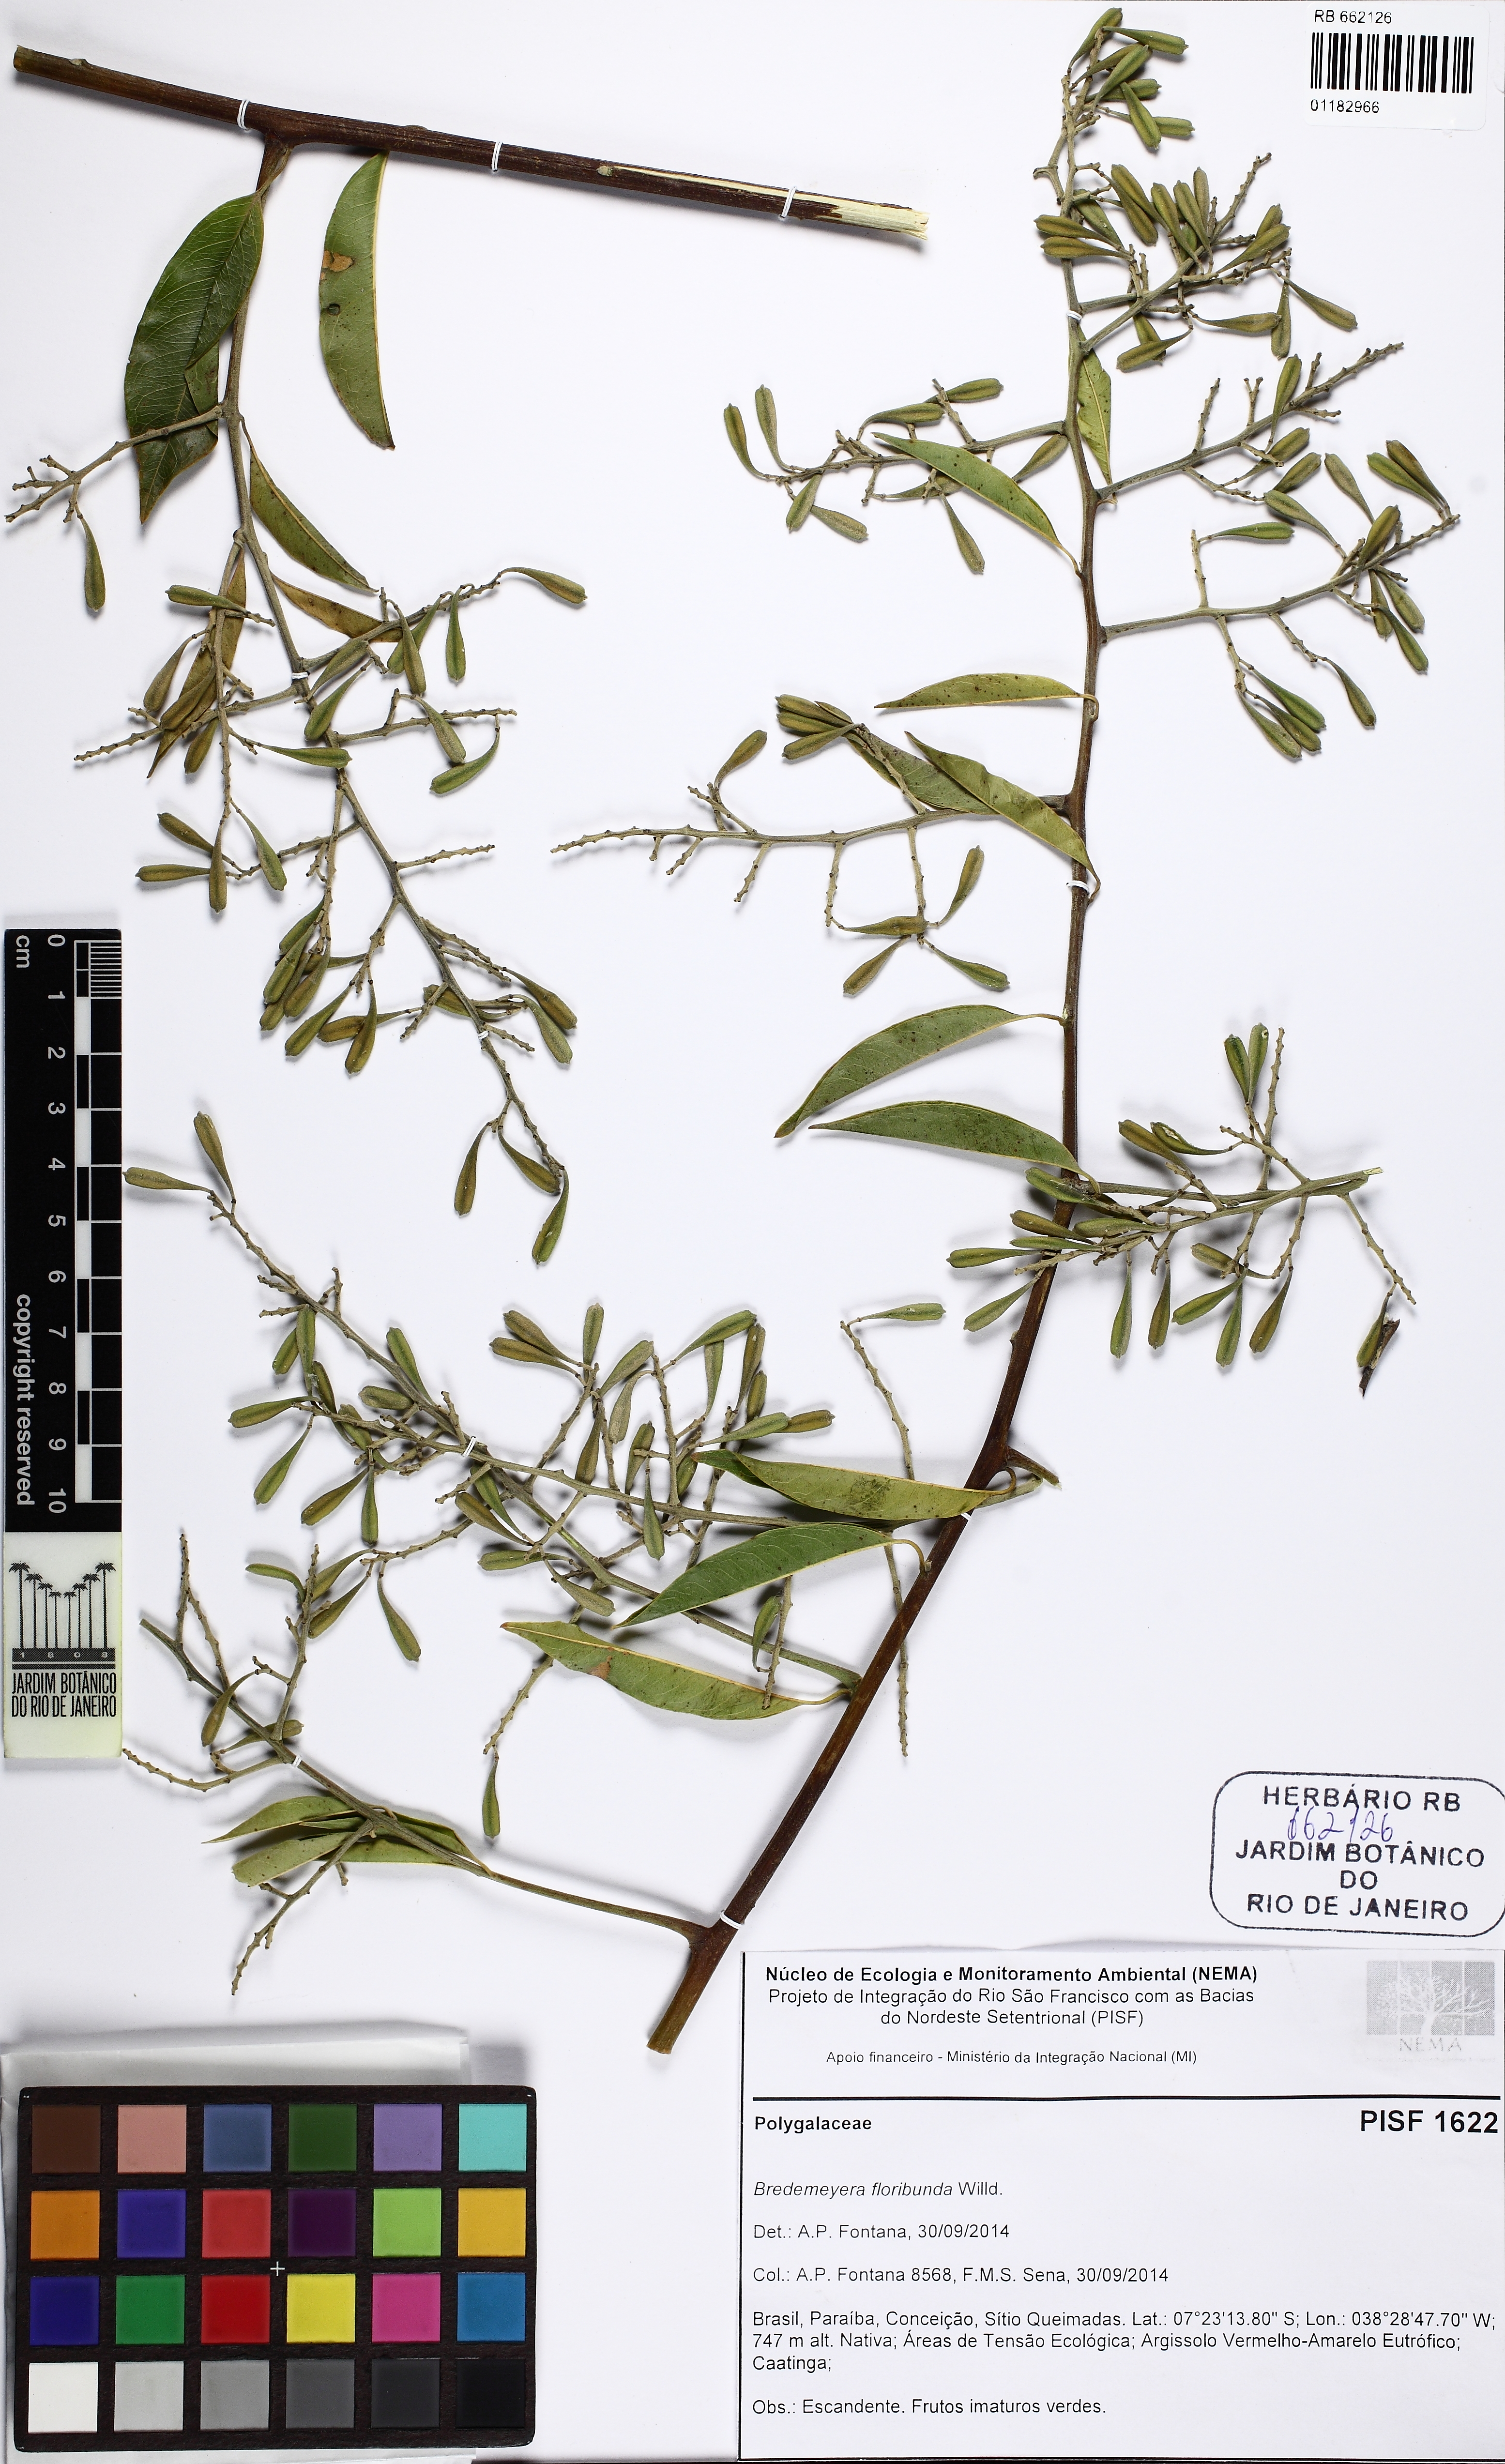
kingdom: Plantae
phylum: Tracheophyta
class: Magnoliopsida
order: Fabales
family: Polygalaceae
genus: Bredemeyera
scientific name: Bredemeyera floribunda
